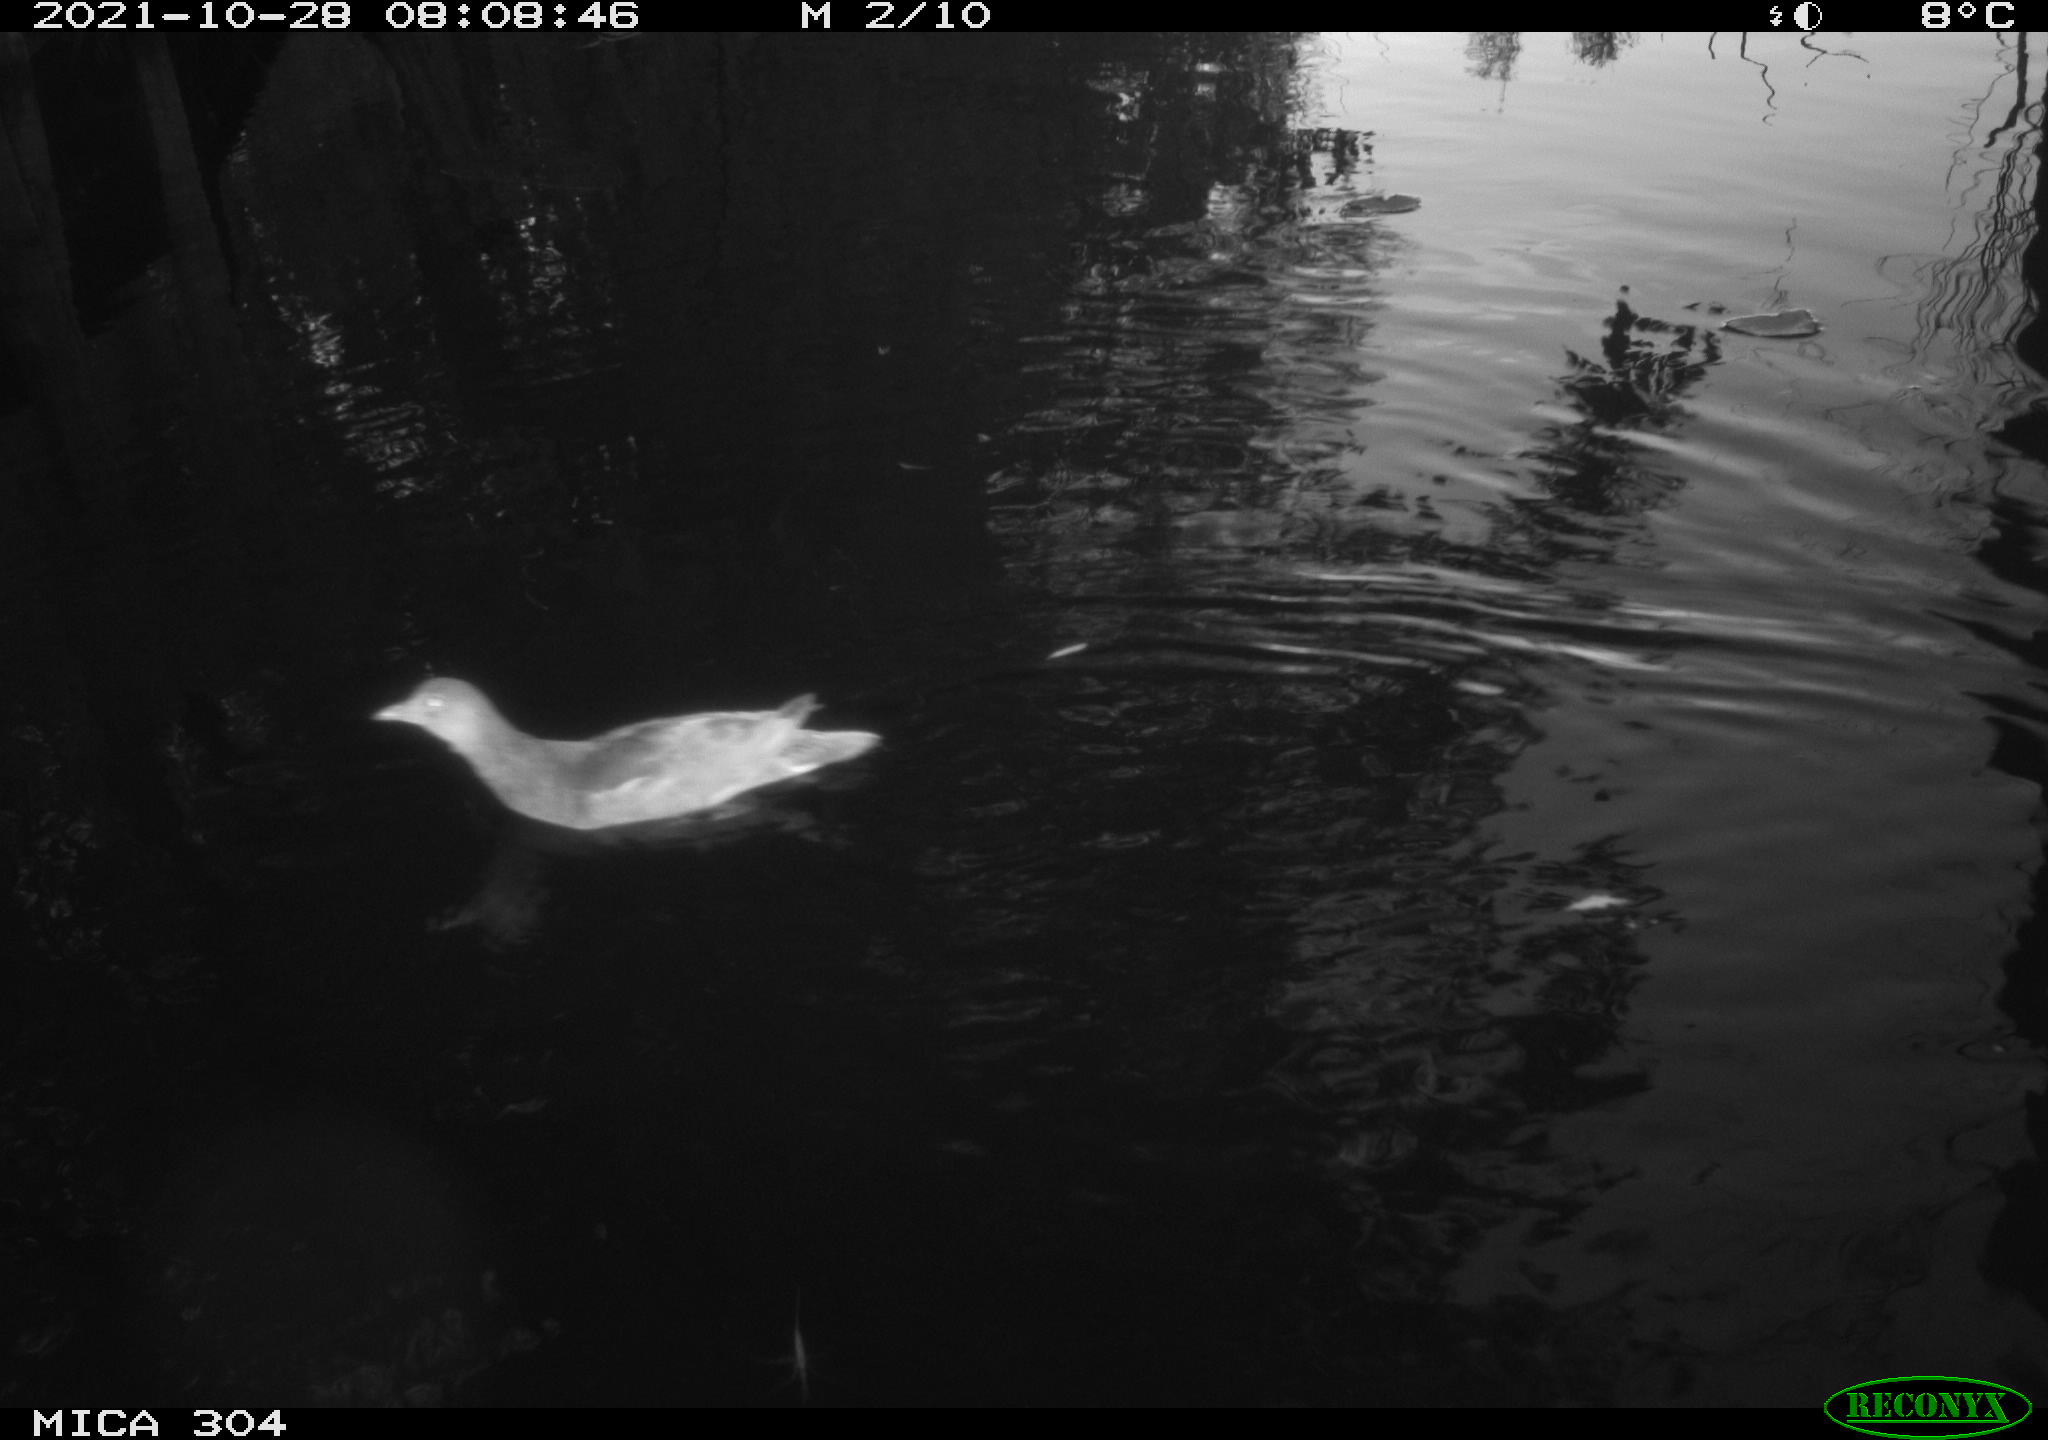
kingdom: Animalia
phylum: Chordata
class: Aves
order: Gruiformes
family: Rallidae
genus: Gallinula
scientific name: Gallinula chloropus
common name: Common moorhen
